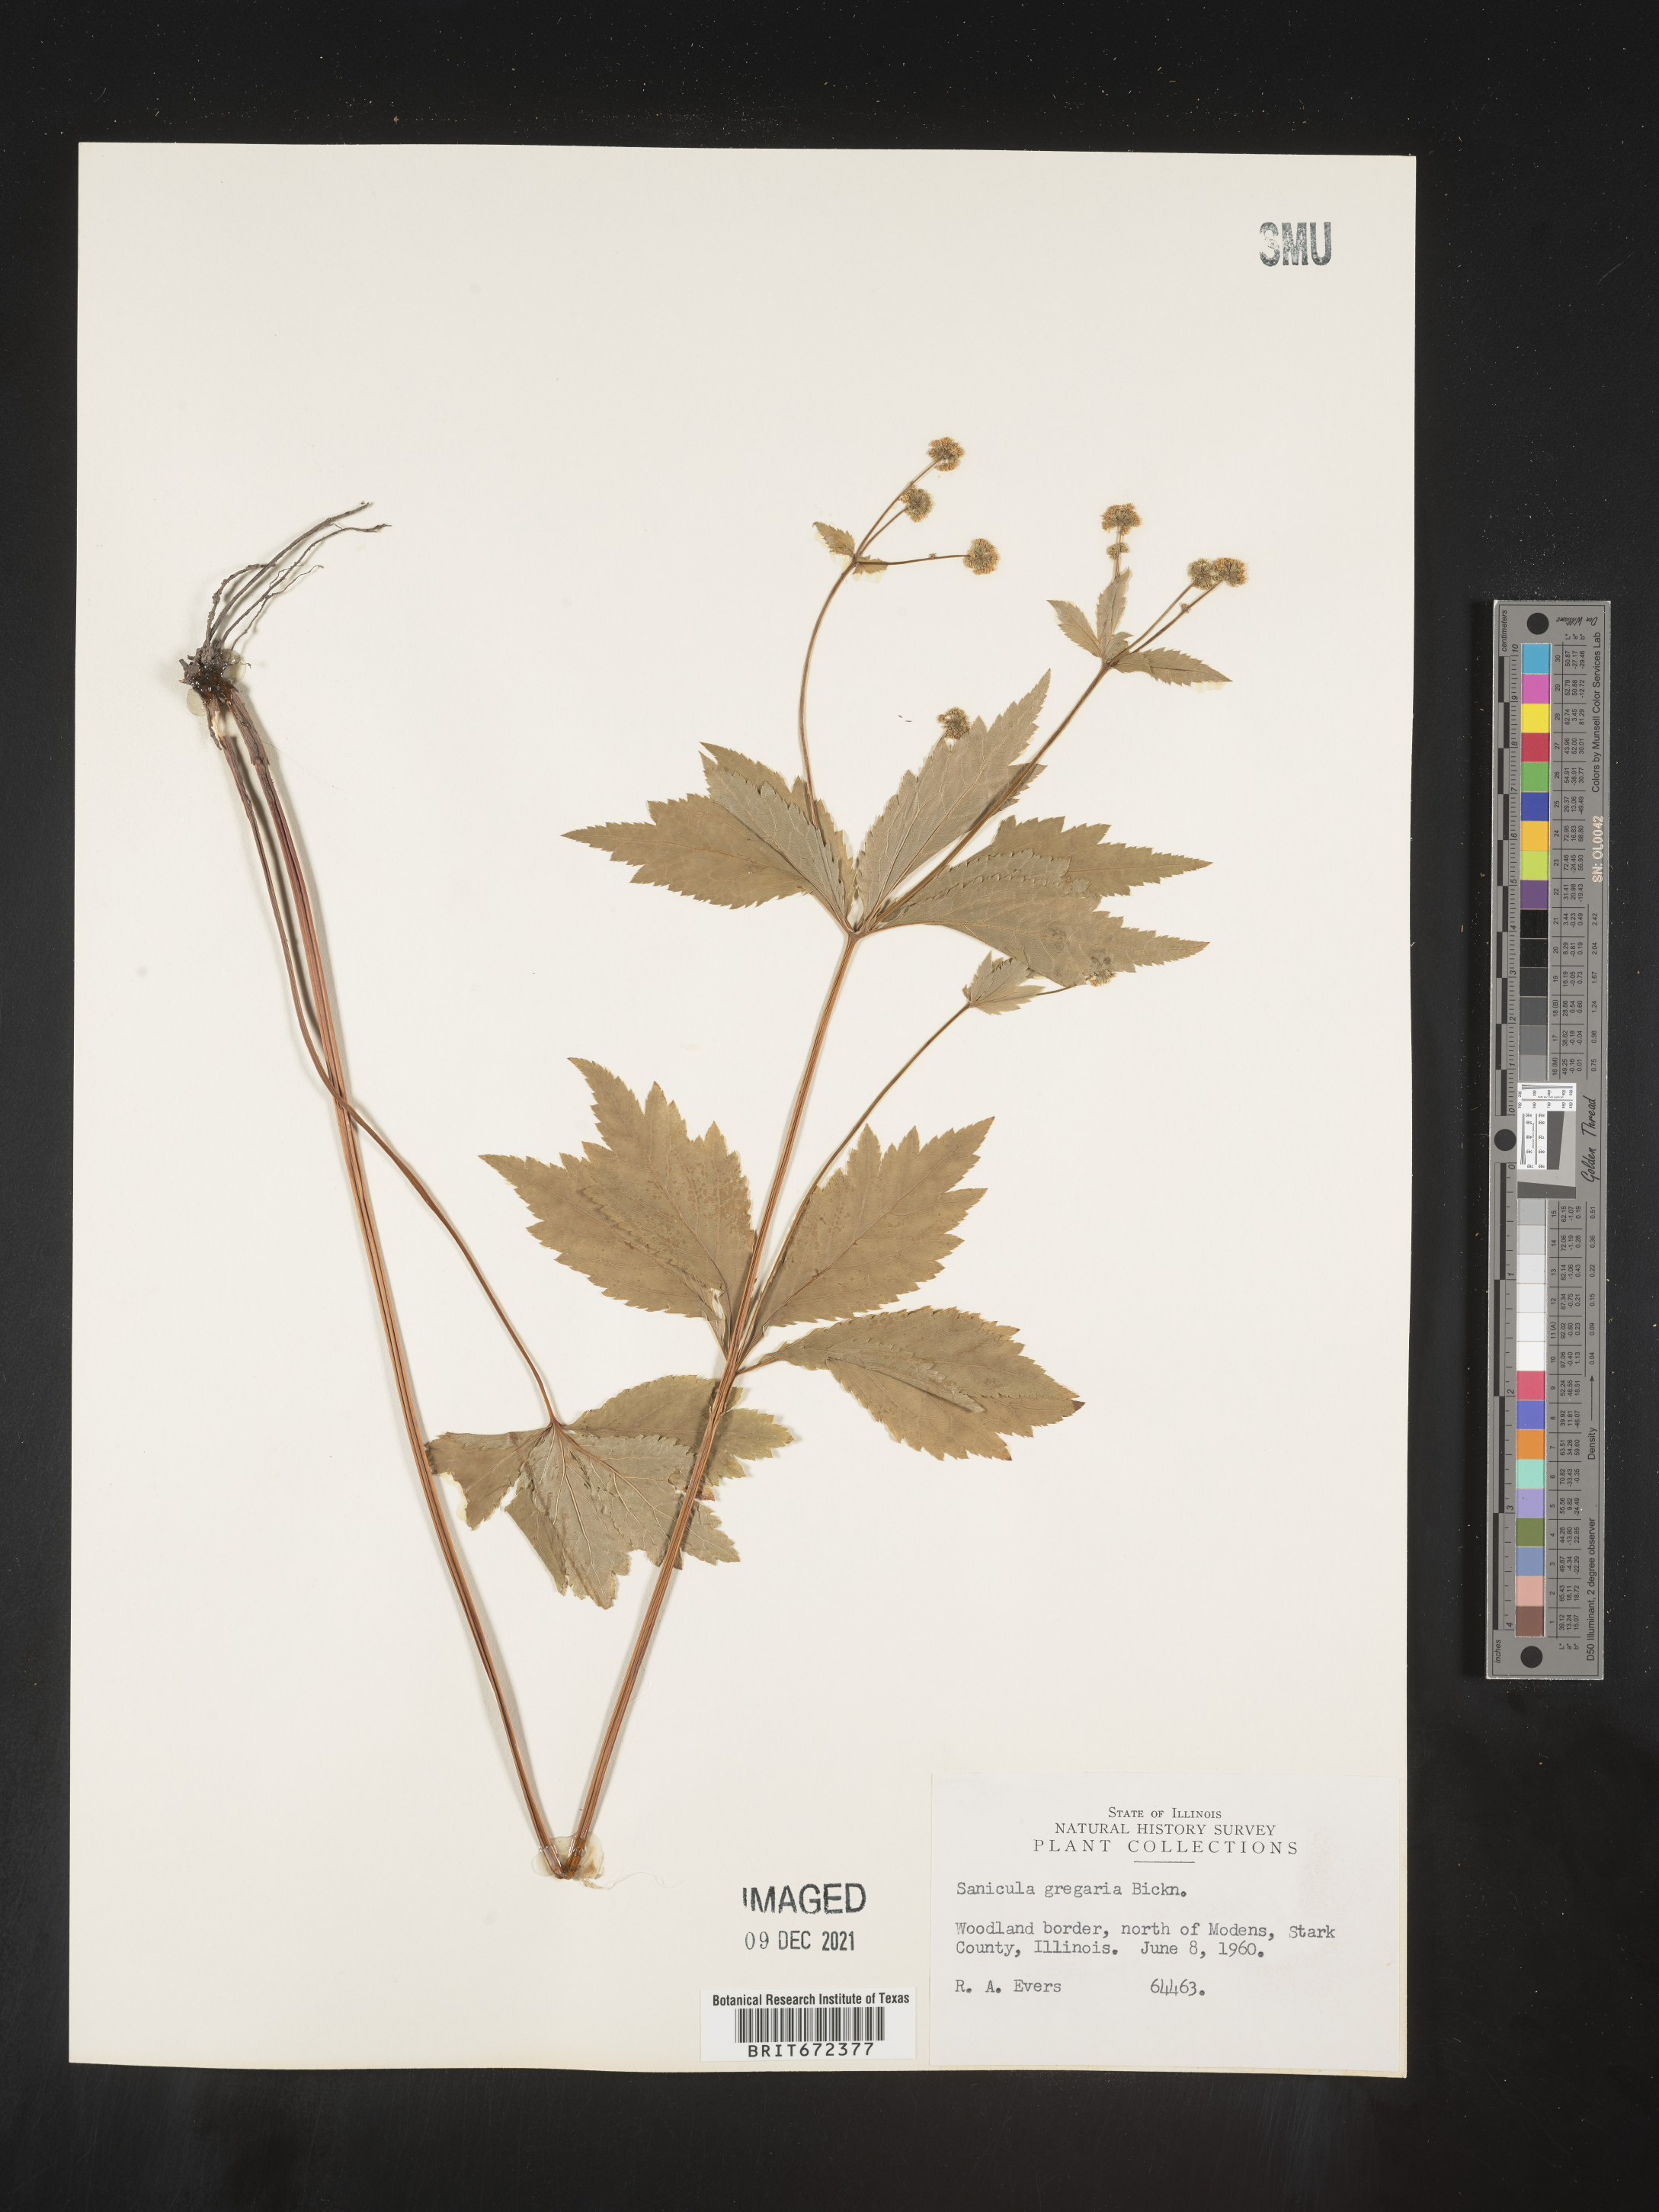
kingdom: Plantae
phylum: Tracheophyta
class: Magnoliopsida
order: Apiales
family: Apiaceae
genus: Sanicula
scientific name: Sanicula odorata
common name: Cluster sanicle
